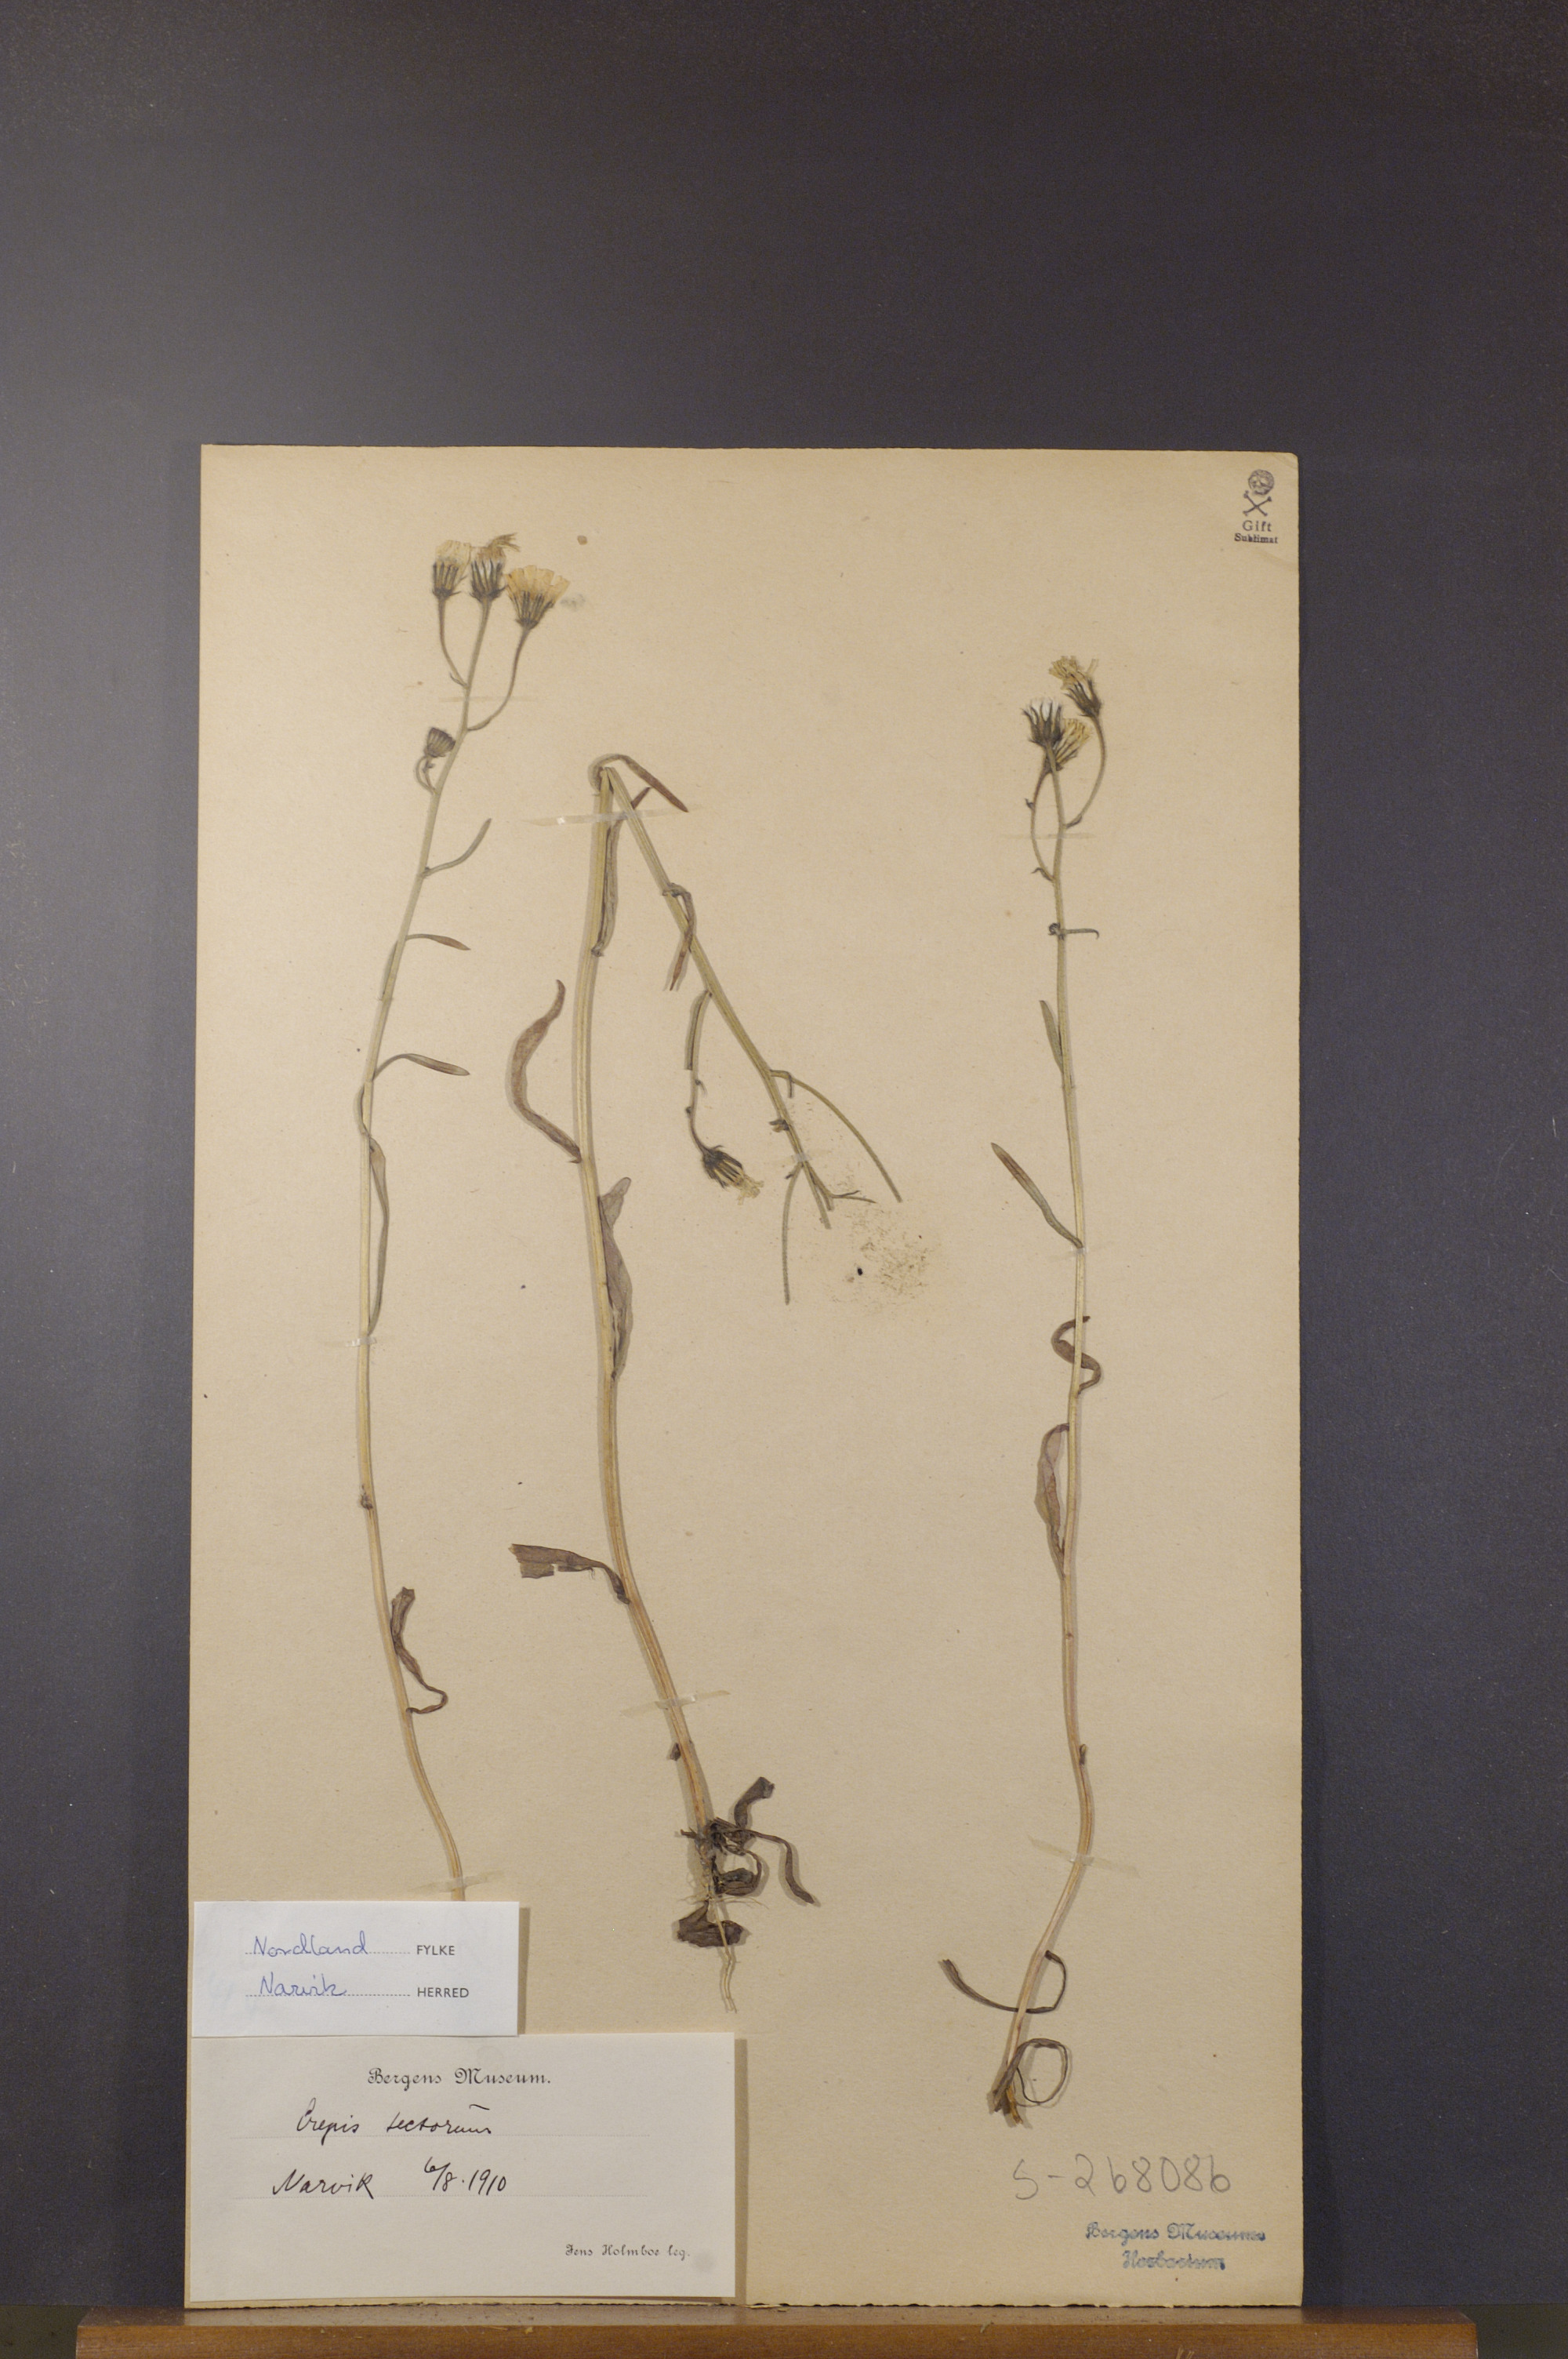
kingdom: Plantae
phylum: Tracheophyta
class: Magnoliopsida
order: Asterales
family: Asteraceae
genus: Crepis
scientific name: Crepis tectorum
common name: Narrow-leaved hawk's-beard
